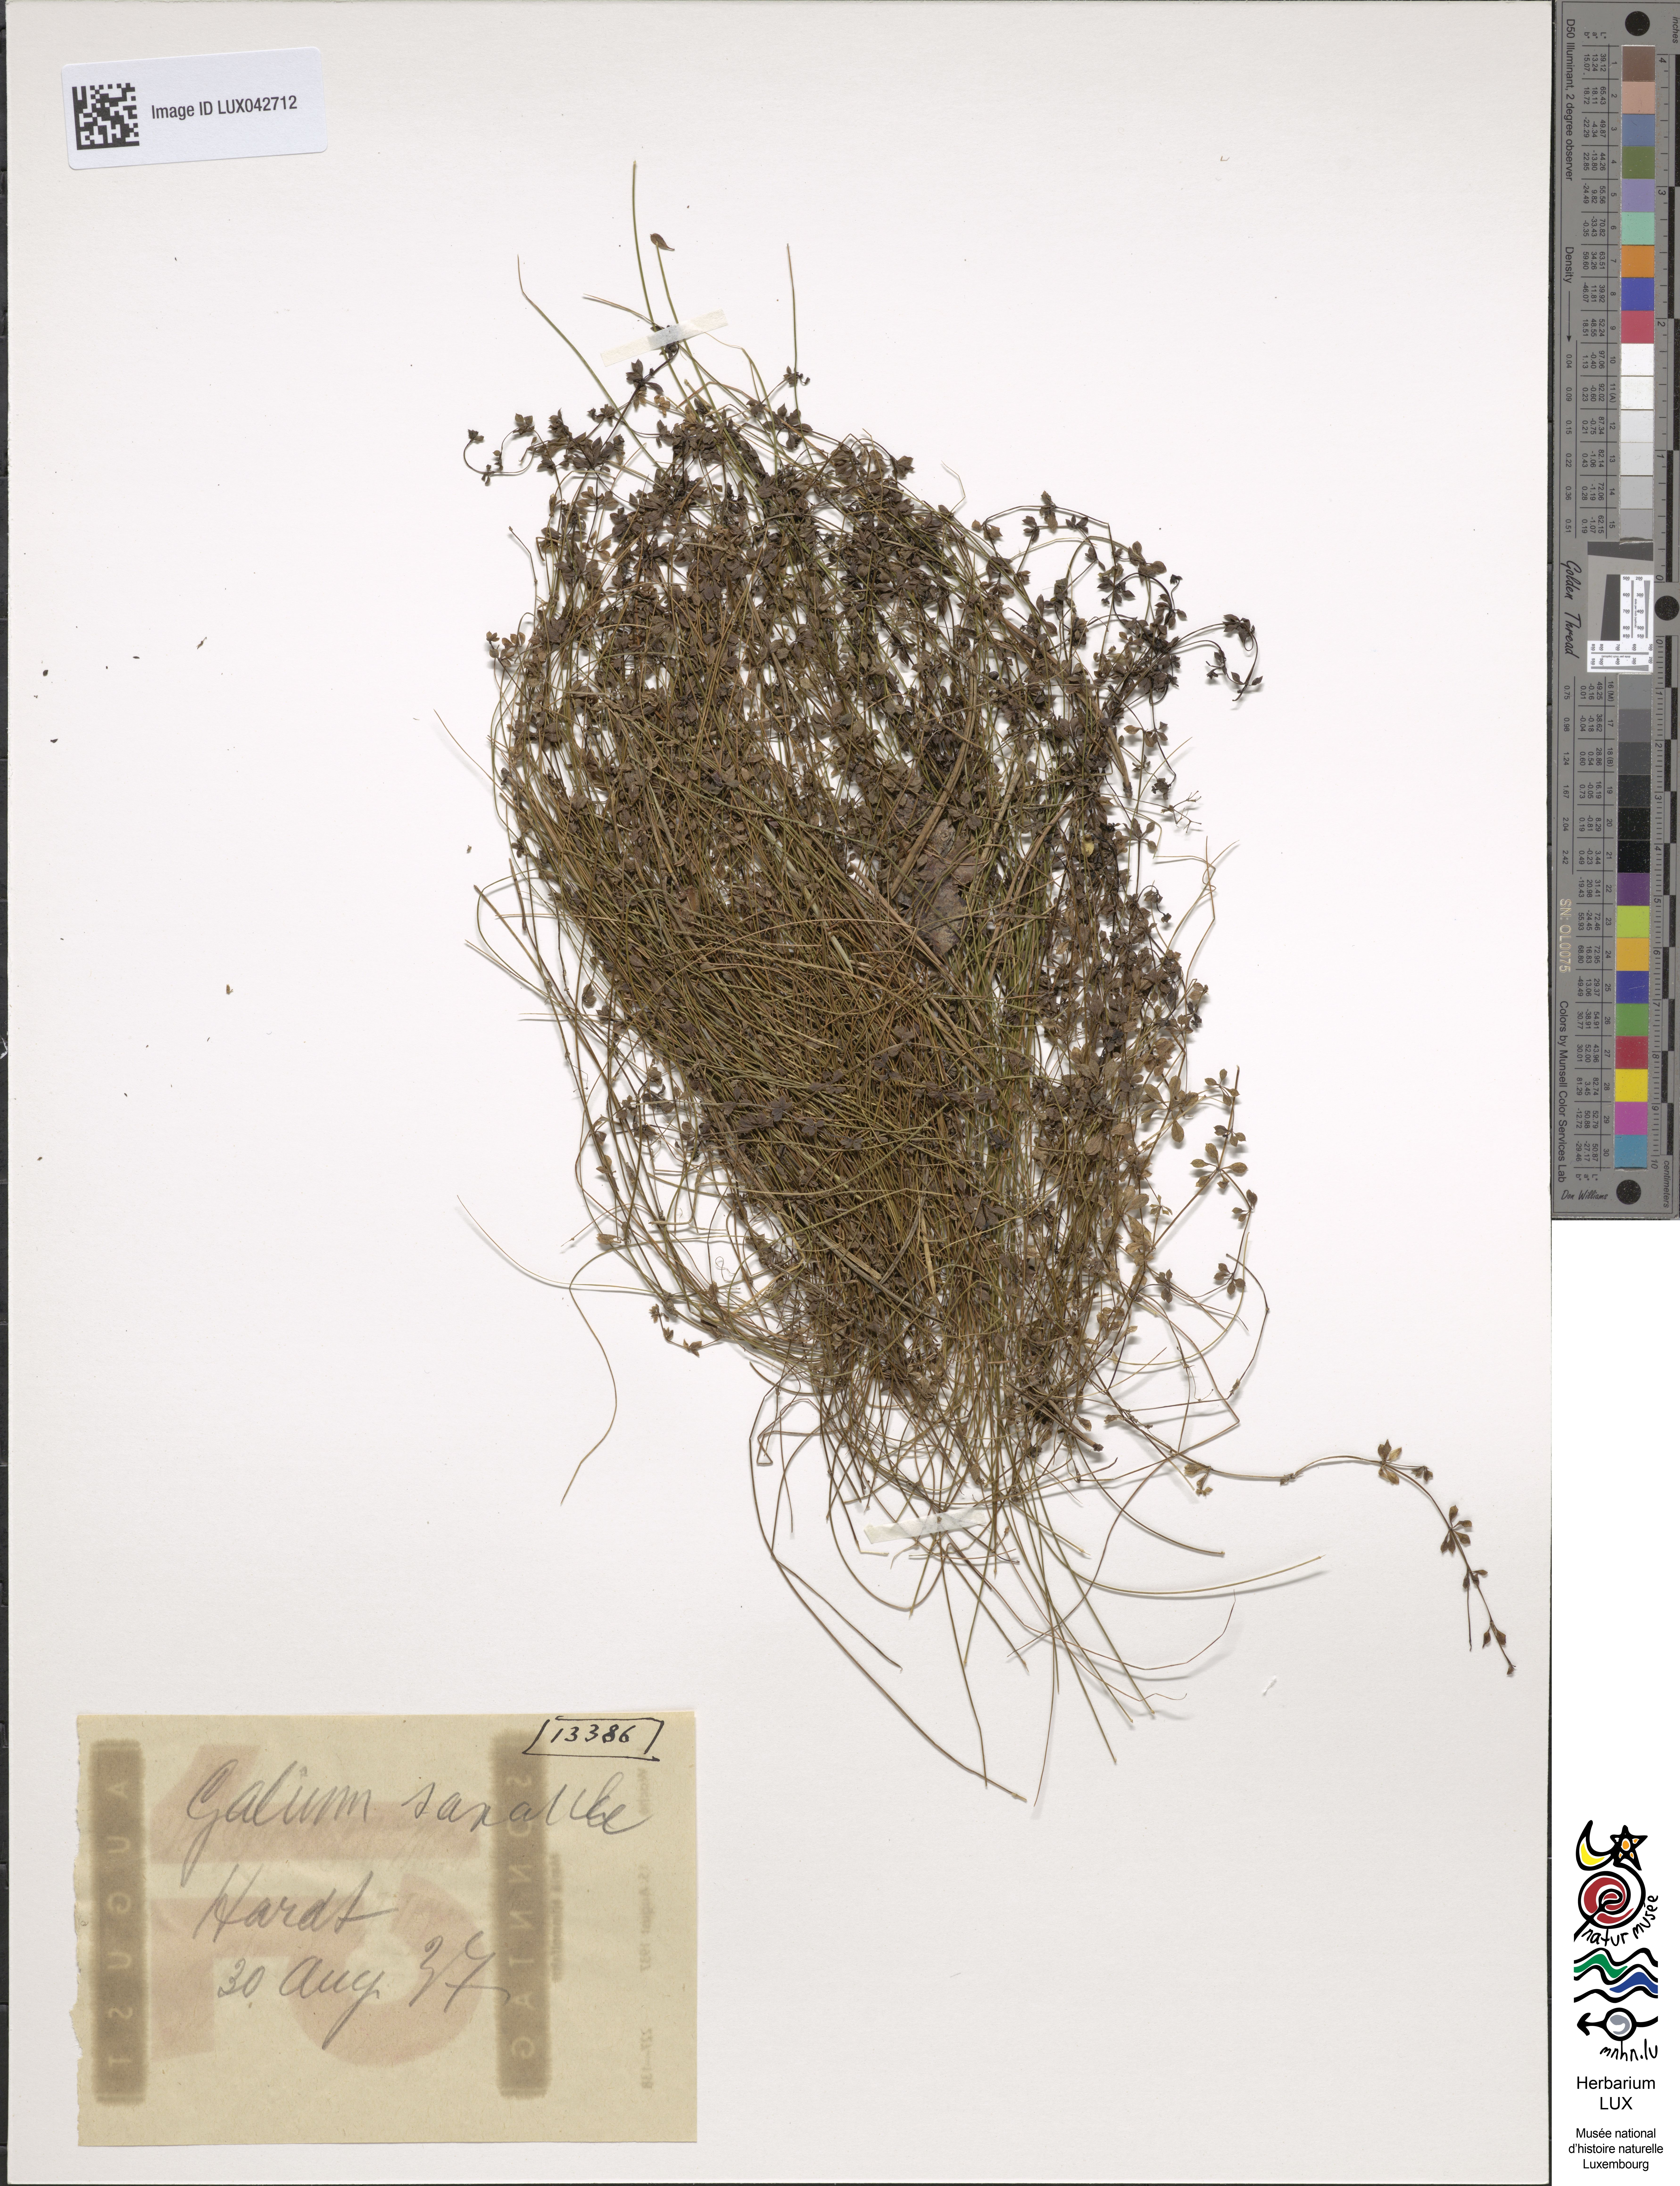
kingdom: Plantae
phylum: Tracheophyta
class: Magnoliopsida
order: Gentianales
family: Rubiaceae
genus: Galium
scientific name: Galium saxatile
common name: Heath bedstraw
